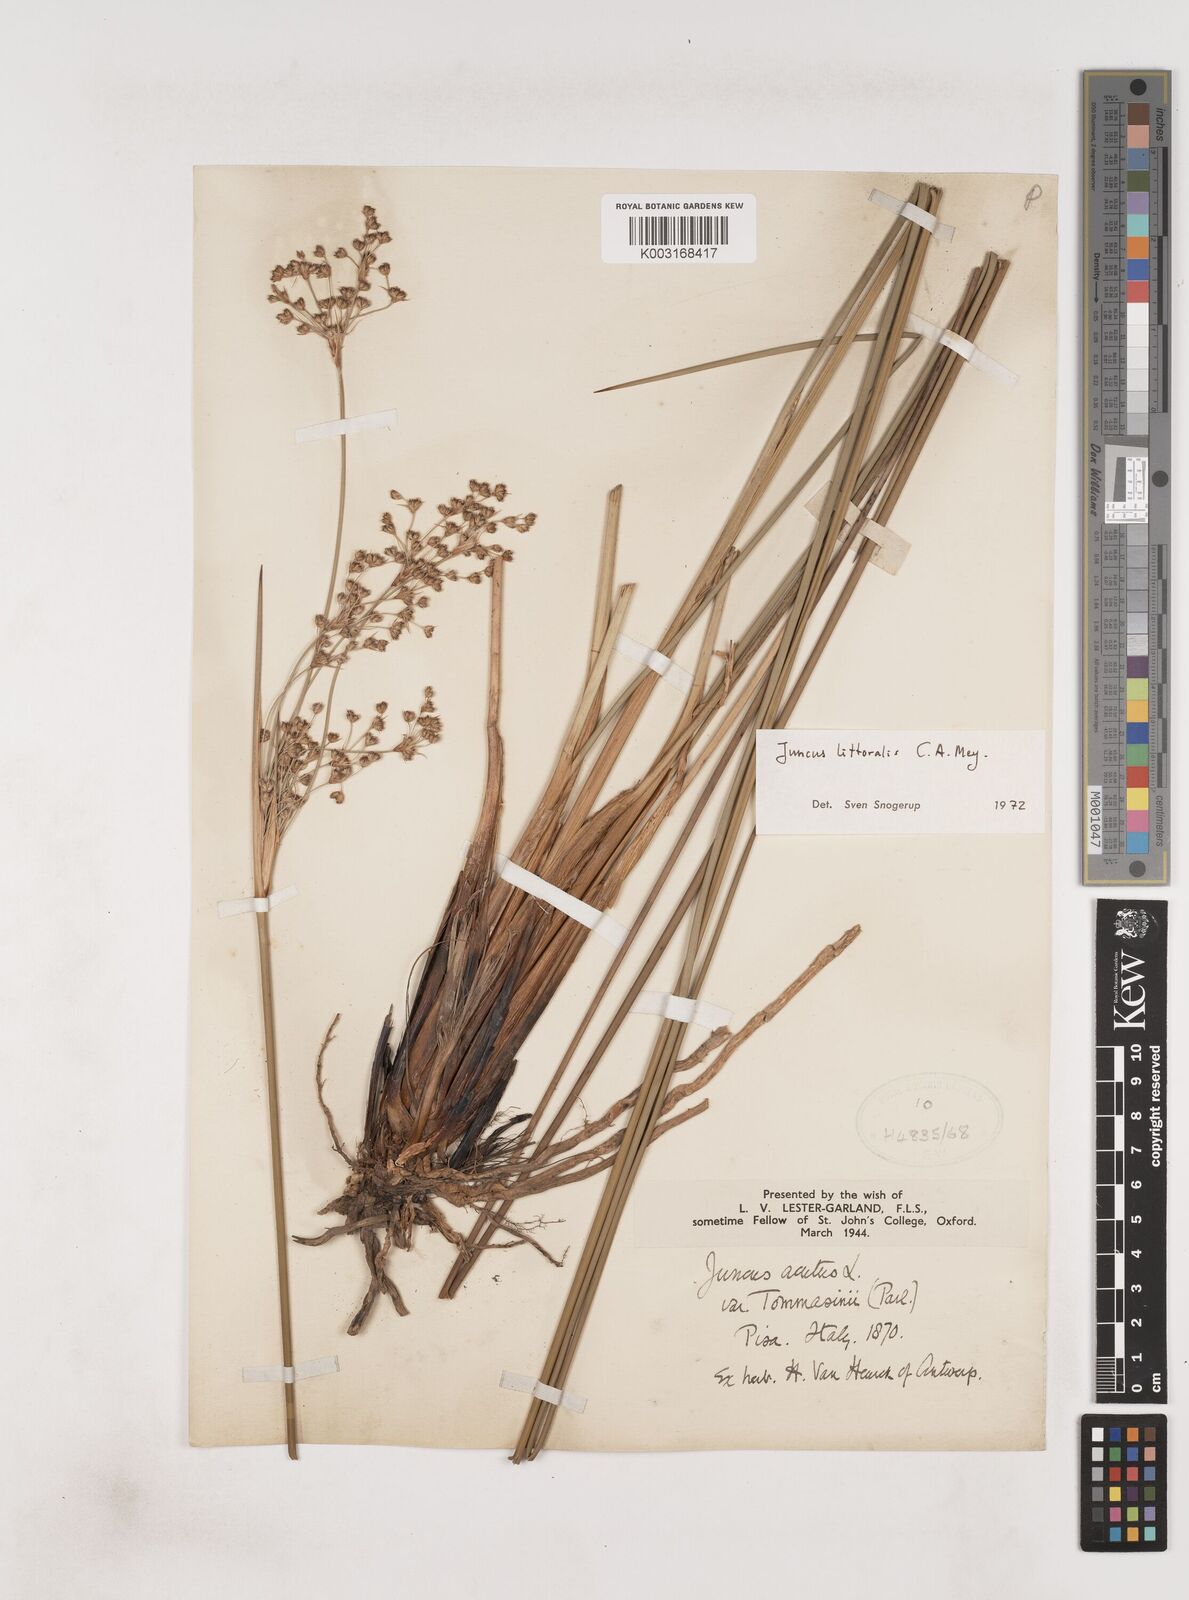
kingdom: Plantae
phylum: Tracheophyta
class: Liliopsida
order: Poales
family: Juncaceae
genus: Juncus
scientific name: Juncus
